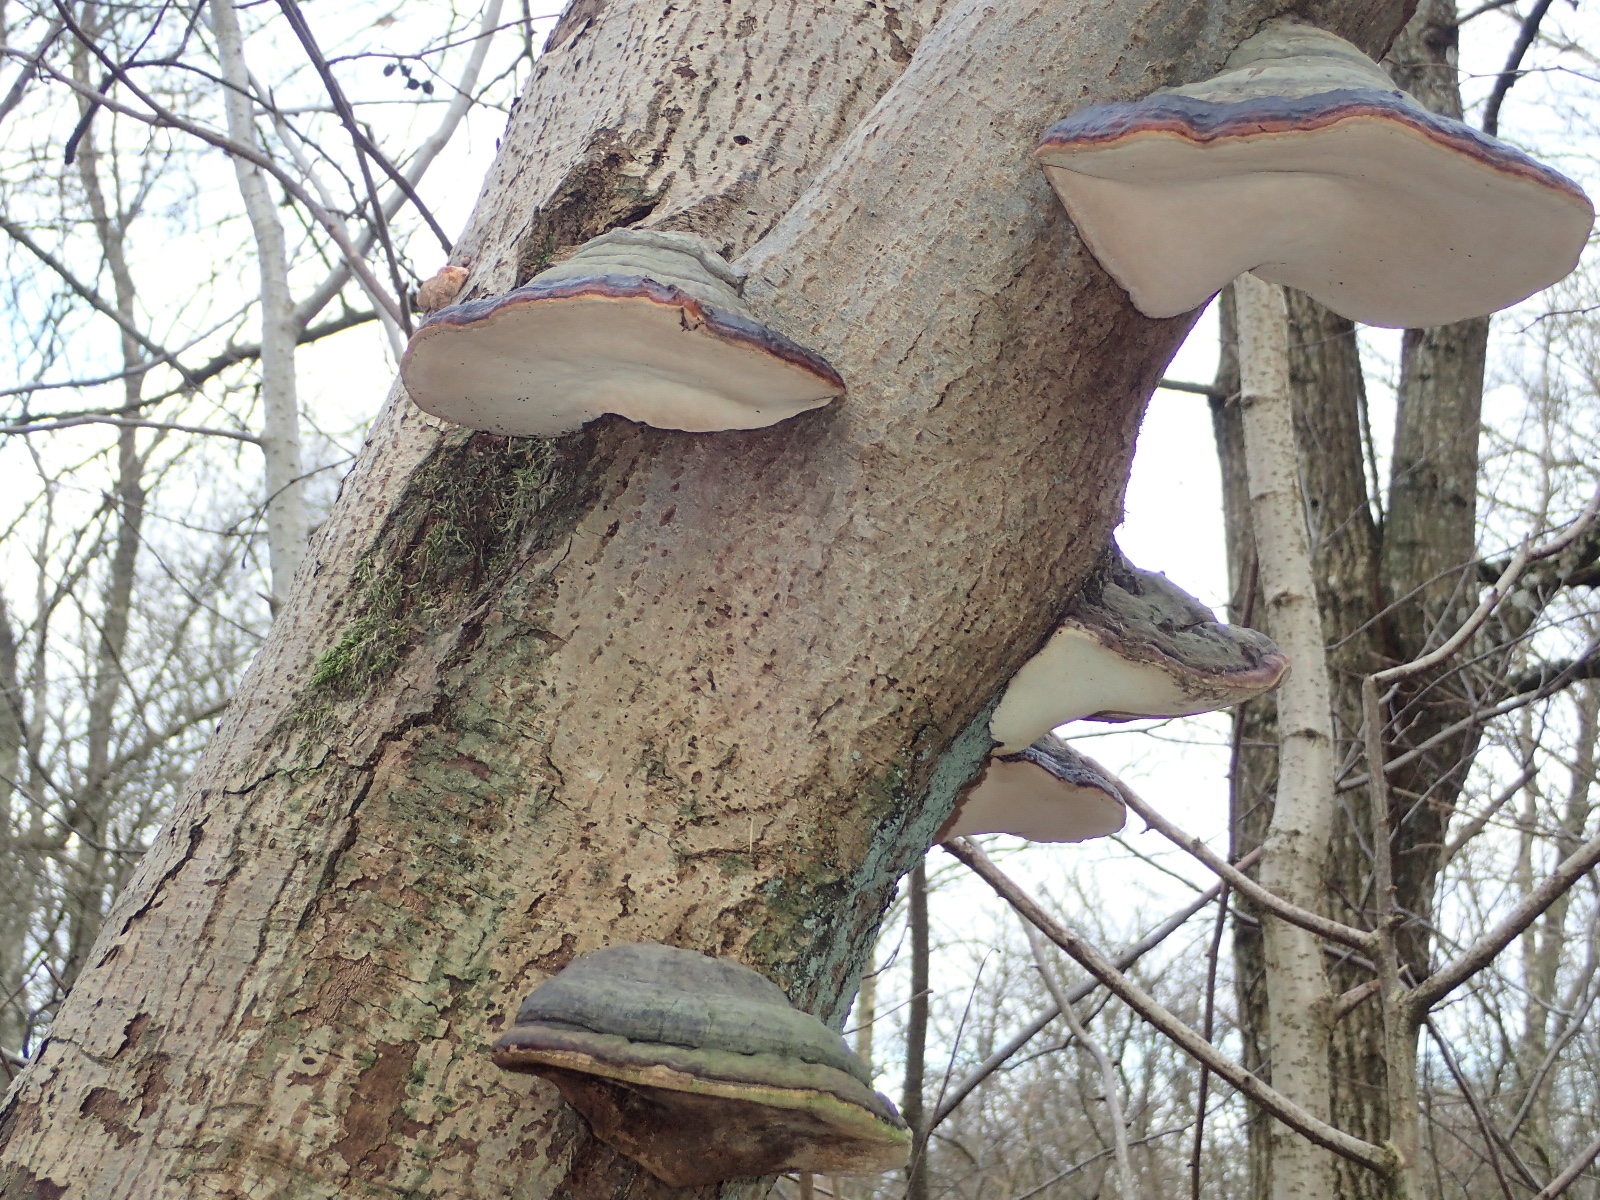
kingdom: Fungi
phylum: Basidiomycota
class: Agaricomycetes
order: Polyporales
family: Fomitopsidaceae
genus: Fomitopsis
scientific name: Fomitopsis pinicola
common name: randbæltet hovporesvamp
